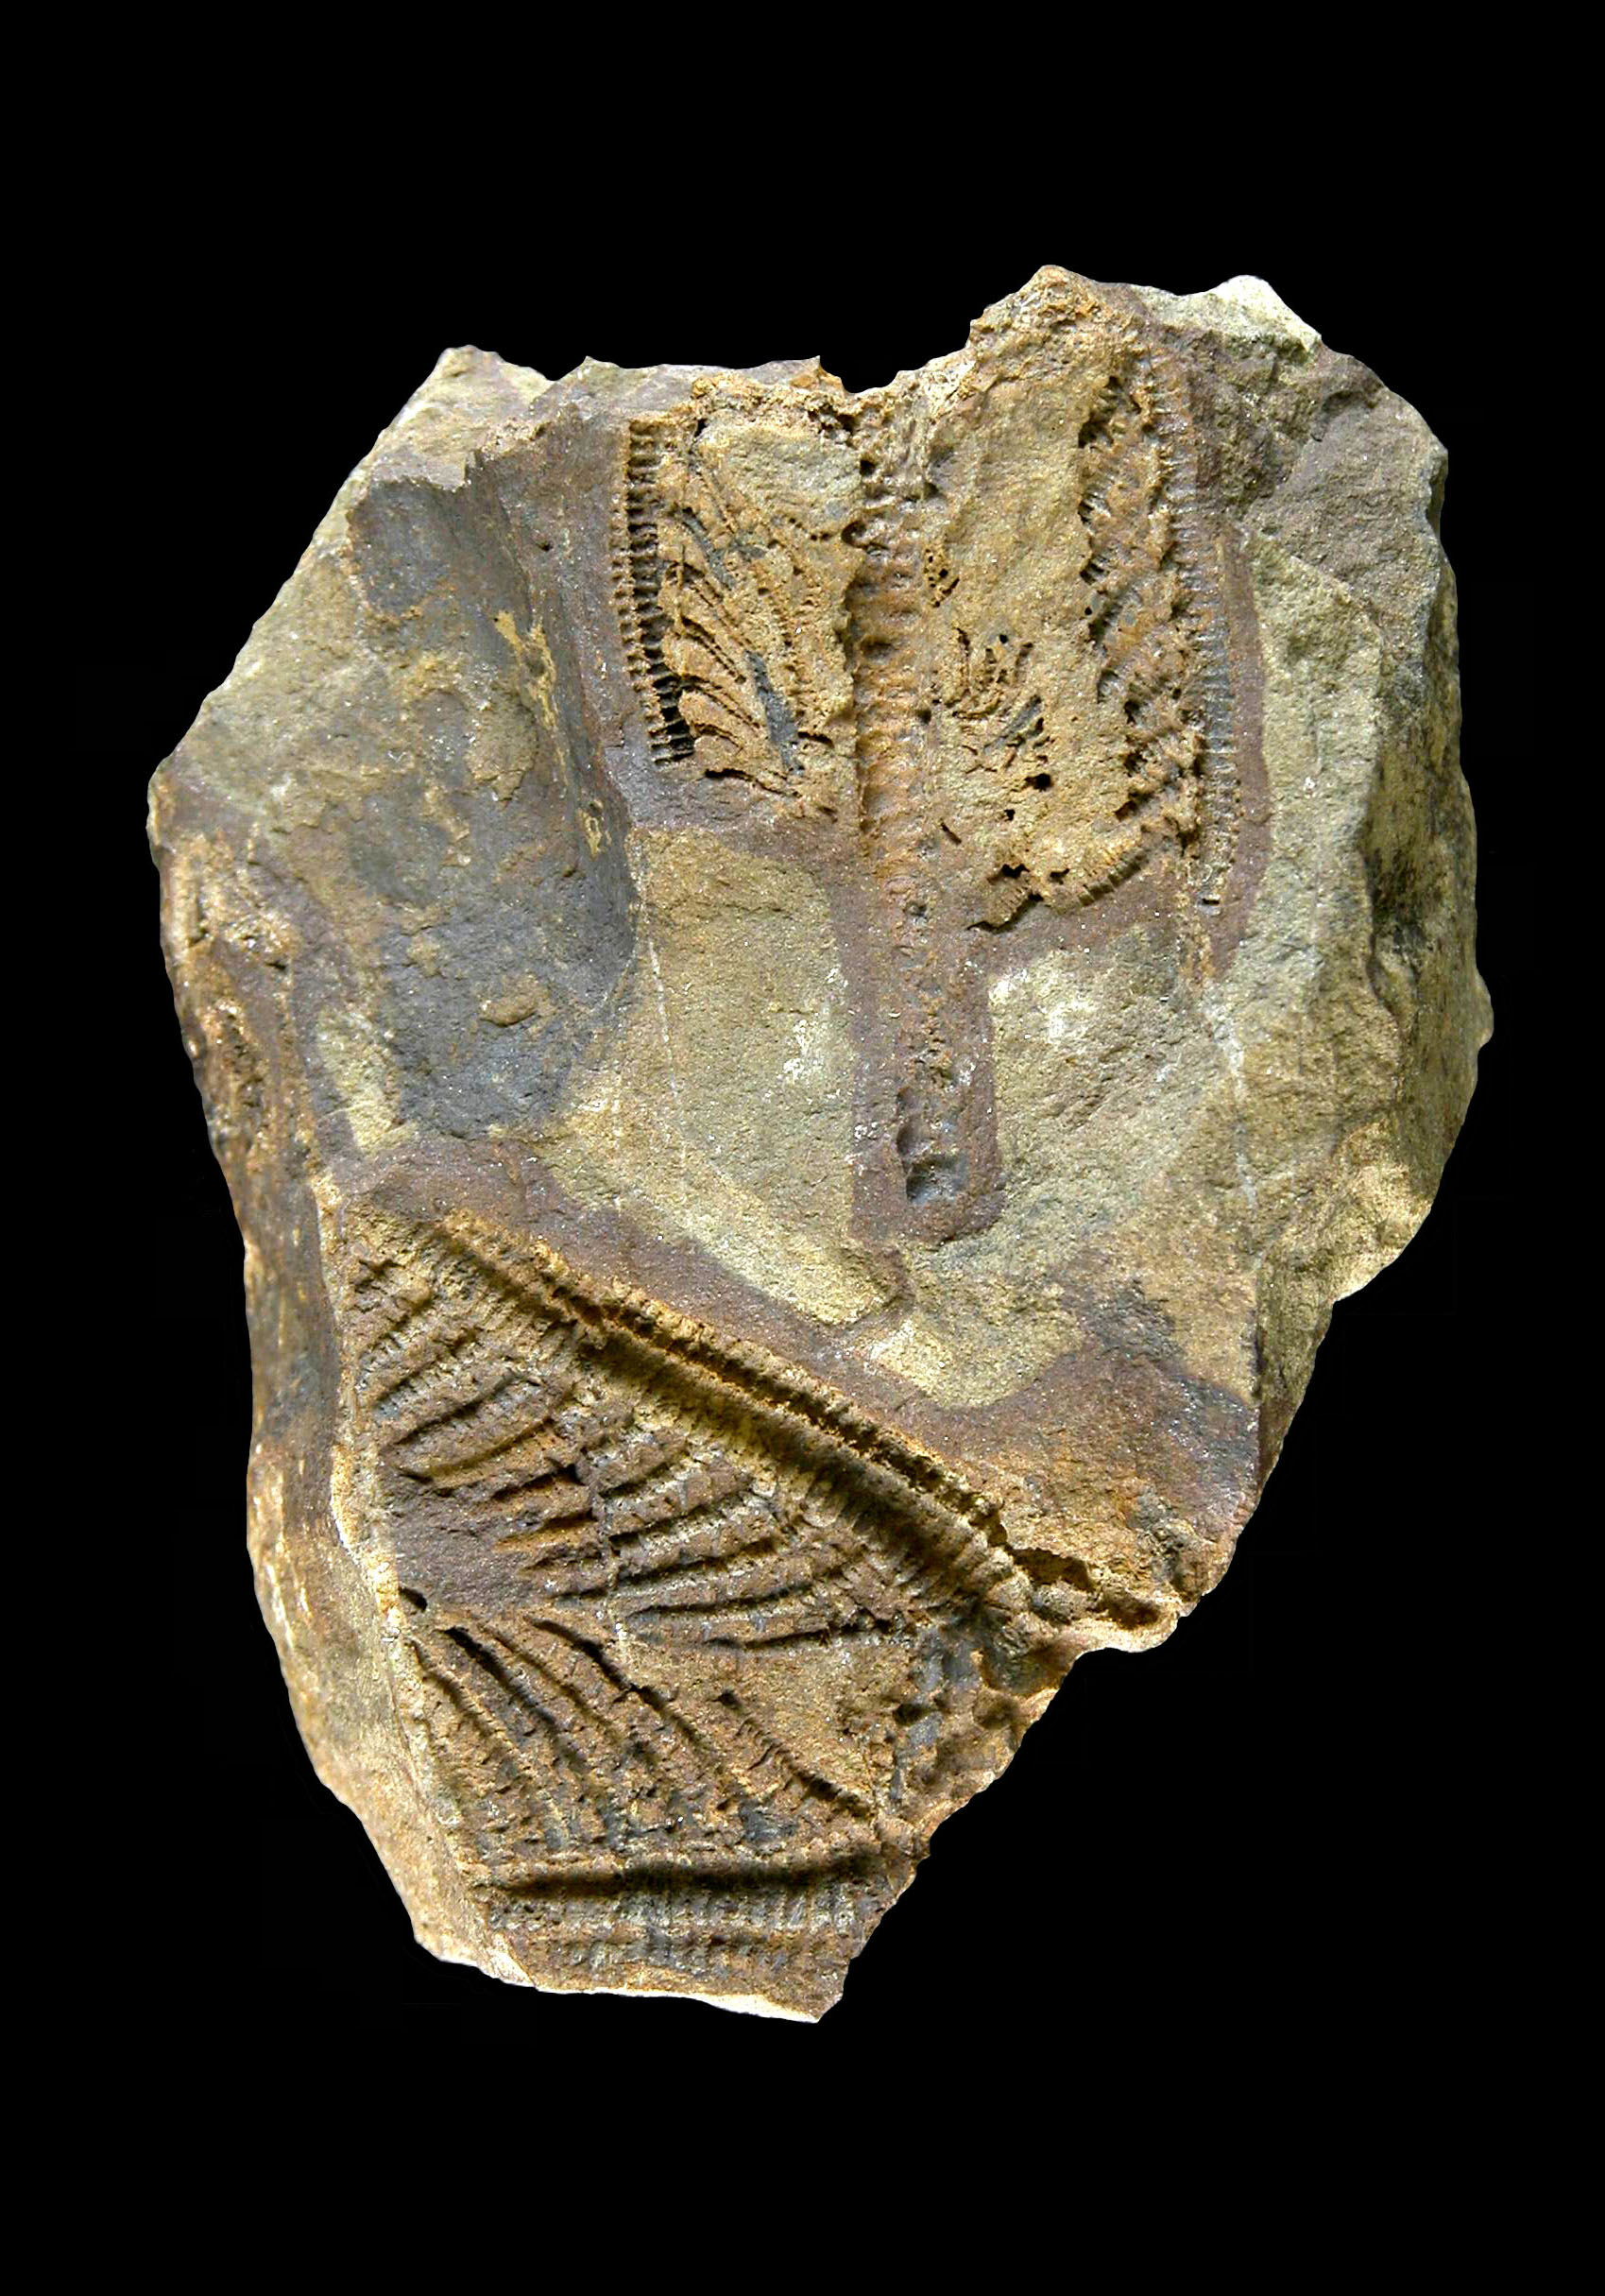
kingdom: Animalia
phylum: Echinodermata
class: Crinoidea
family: Melocrinitidae
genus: Ctenocrinus
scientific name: Ctenocrinus
